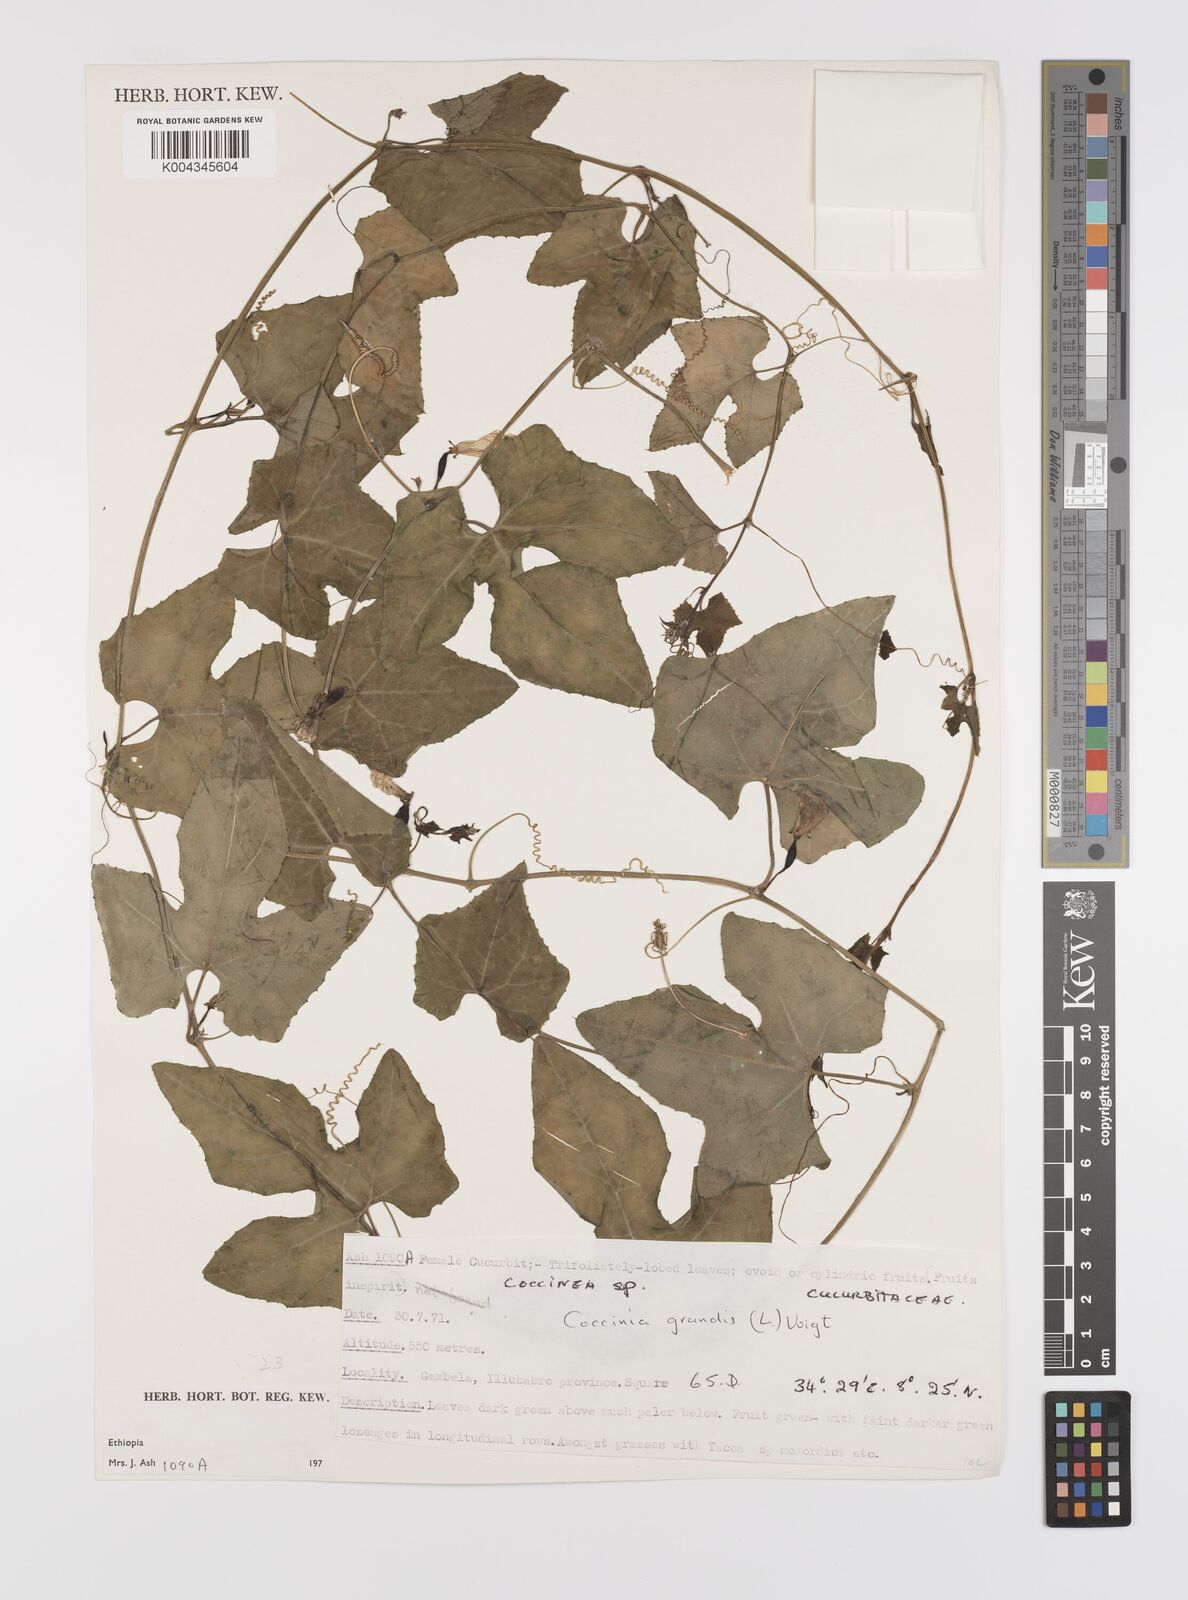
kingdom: Plantae
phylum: Tracheophyta
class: Magnoliopsida
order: Cucurbitales
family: Cucurbitaceae
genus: Coccinia
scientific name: Coccinia grandis
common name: Ivy gourd
